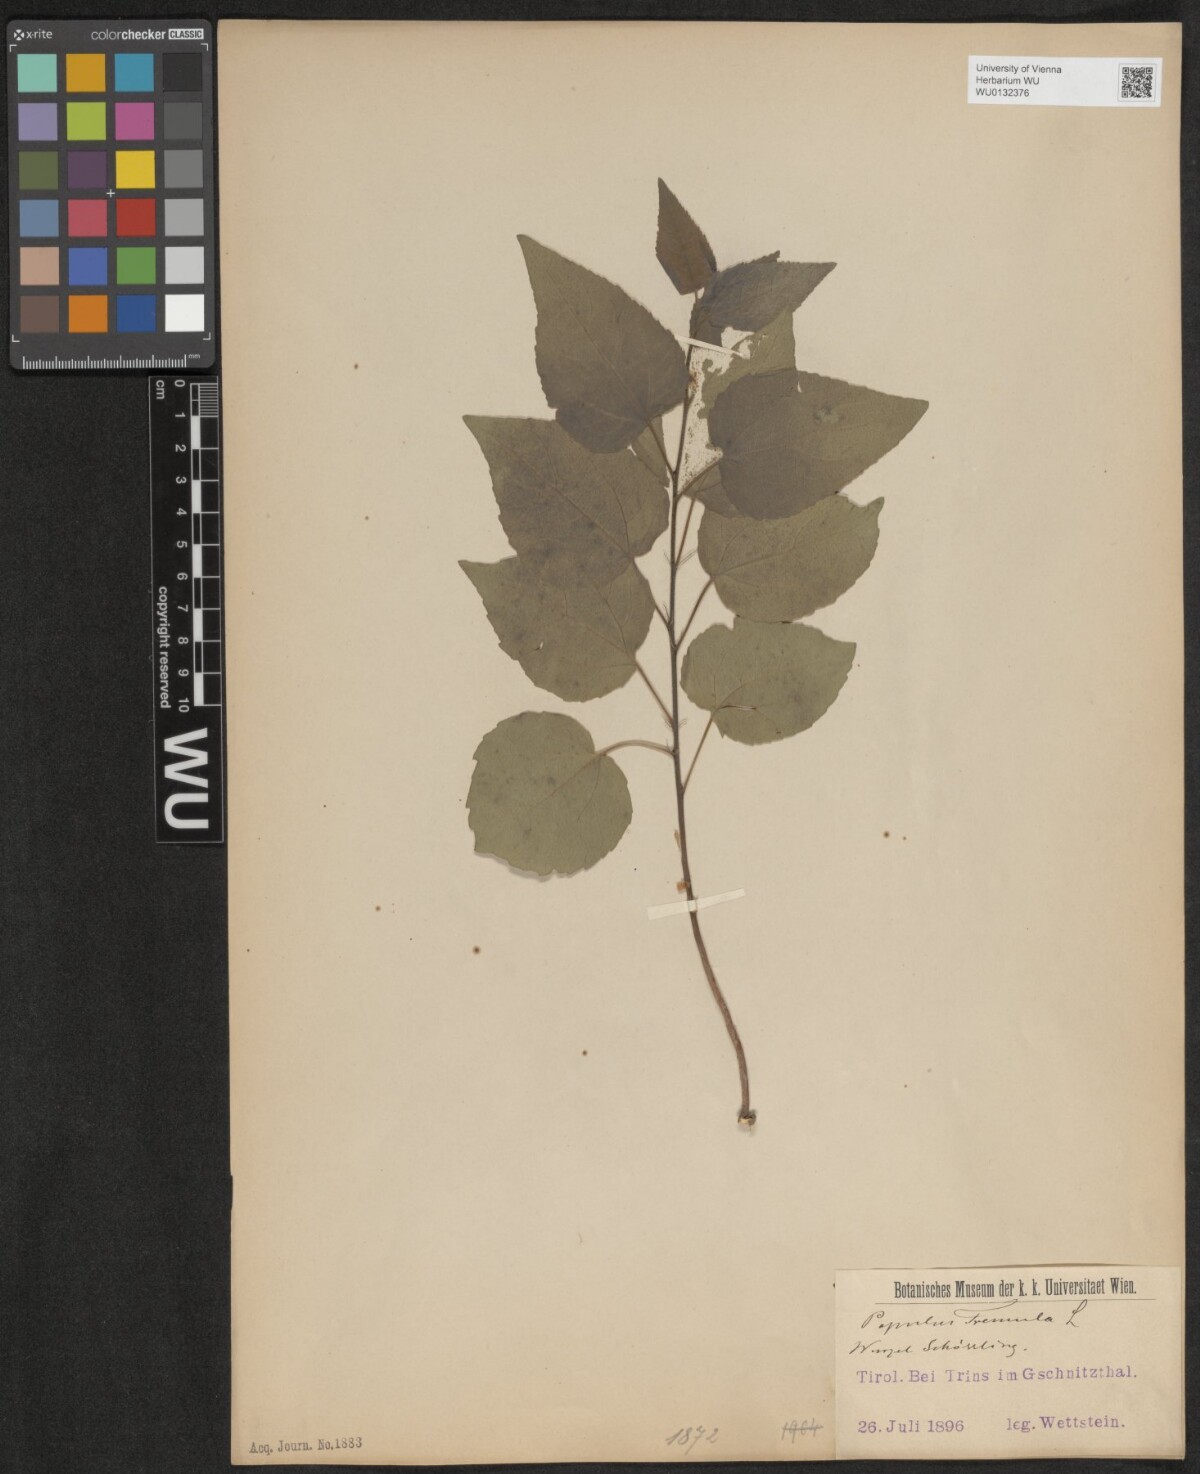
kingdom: Plantae
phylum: Tracheophyta
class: Magnoliopsida
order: Malpighiales
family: Salicaceae
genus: Populus
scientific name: Populus tremula
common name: European aspen
